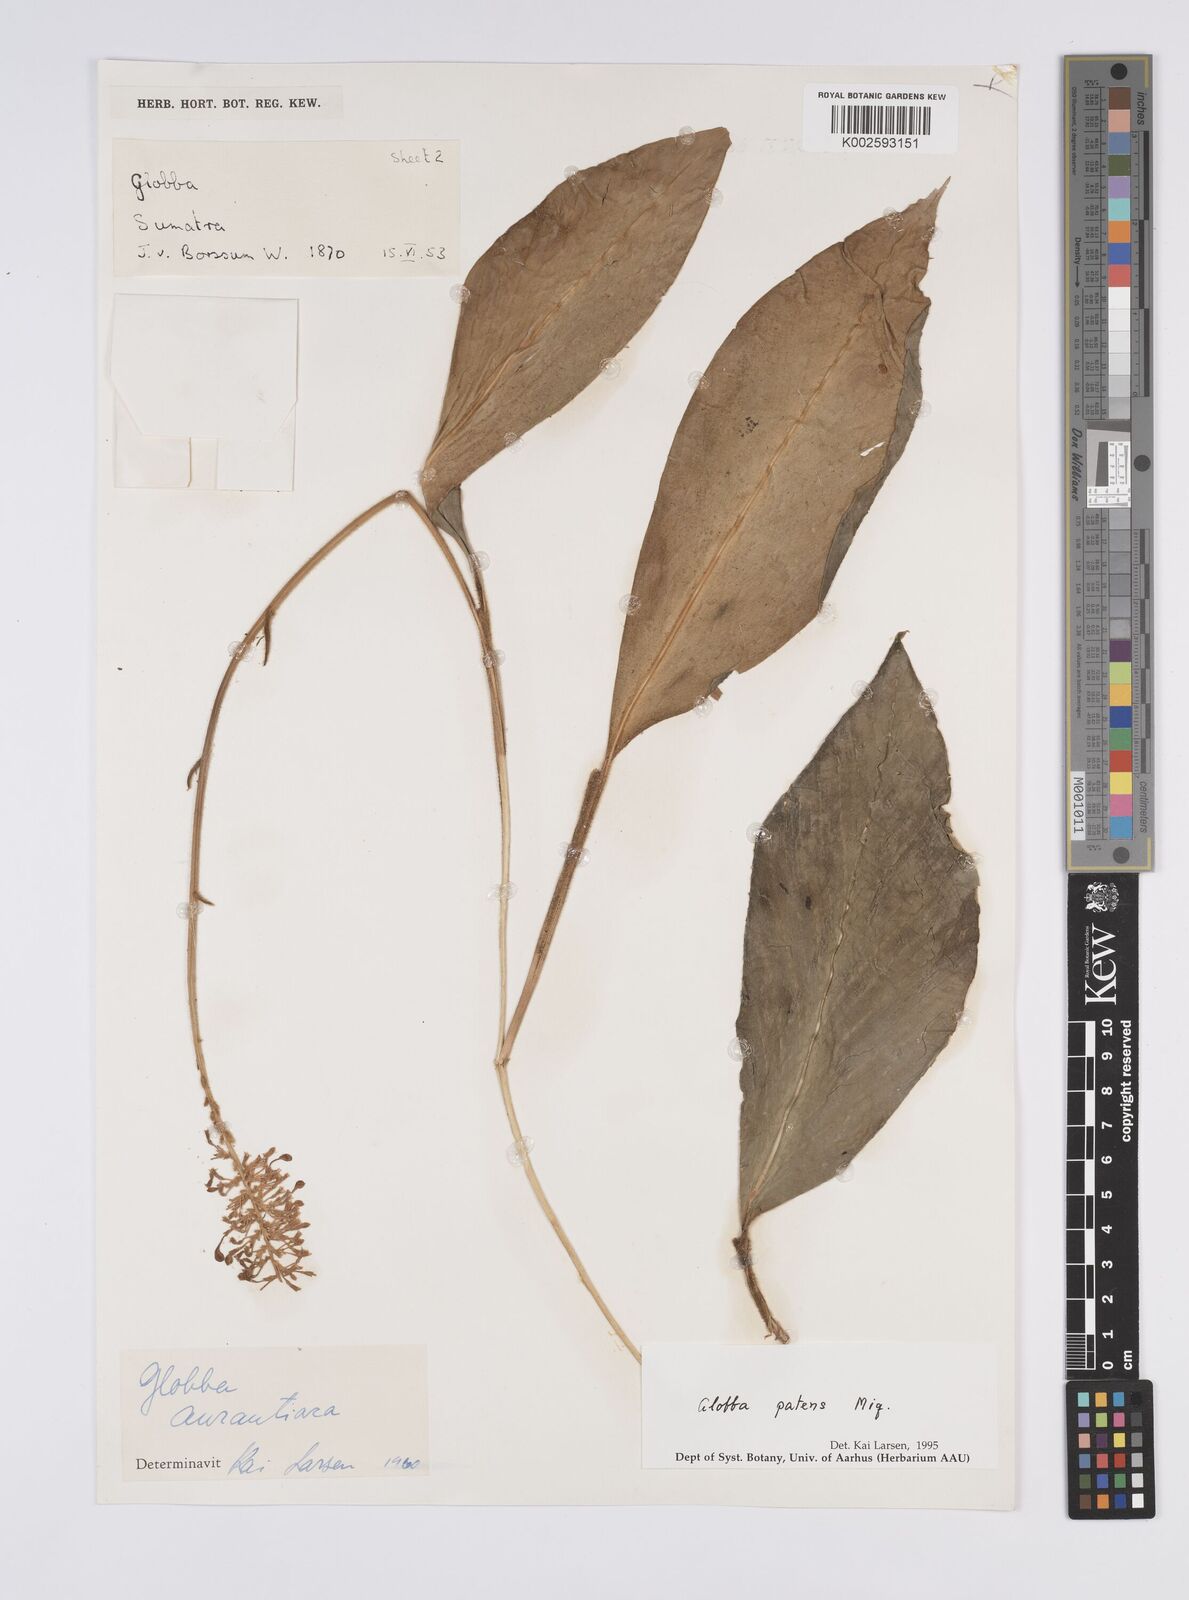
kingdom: Plantae
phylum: Tracheophyta
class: Liliopsida
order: Zingiberales
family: Zingiberaceae
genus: Globba
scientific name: Globba patens
